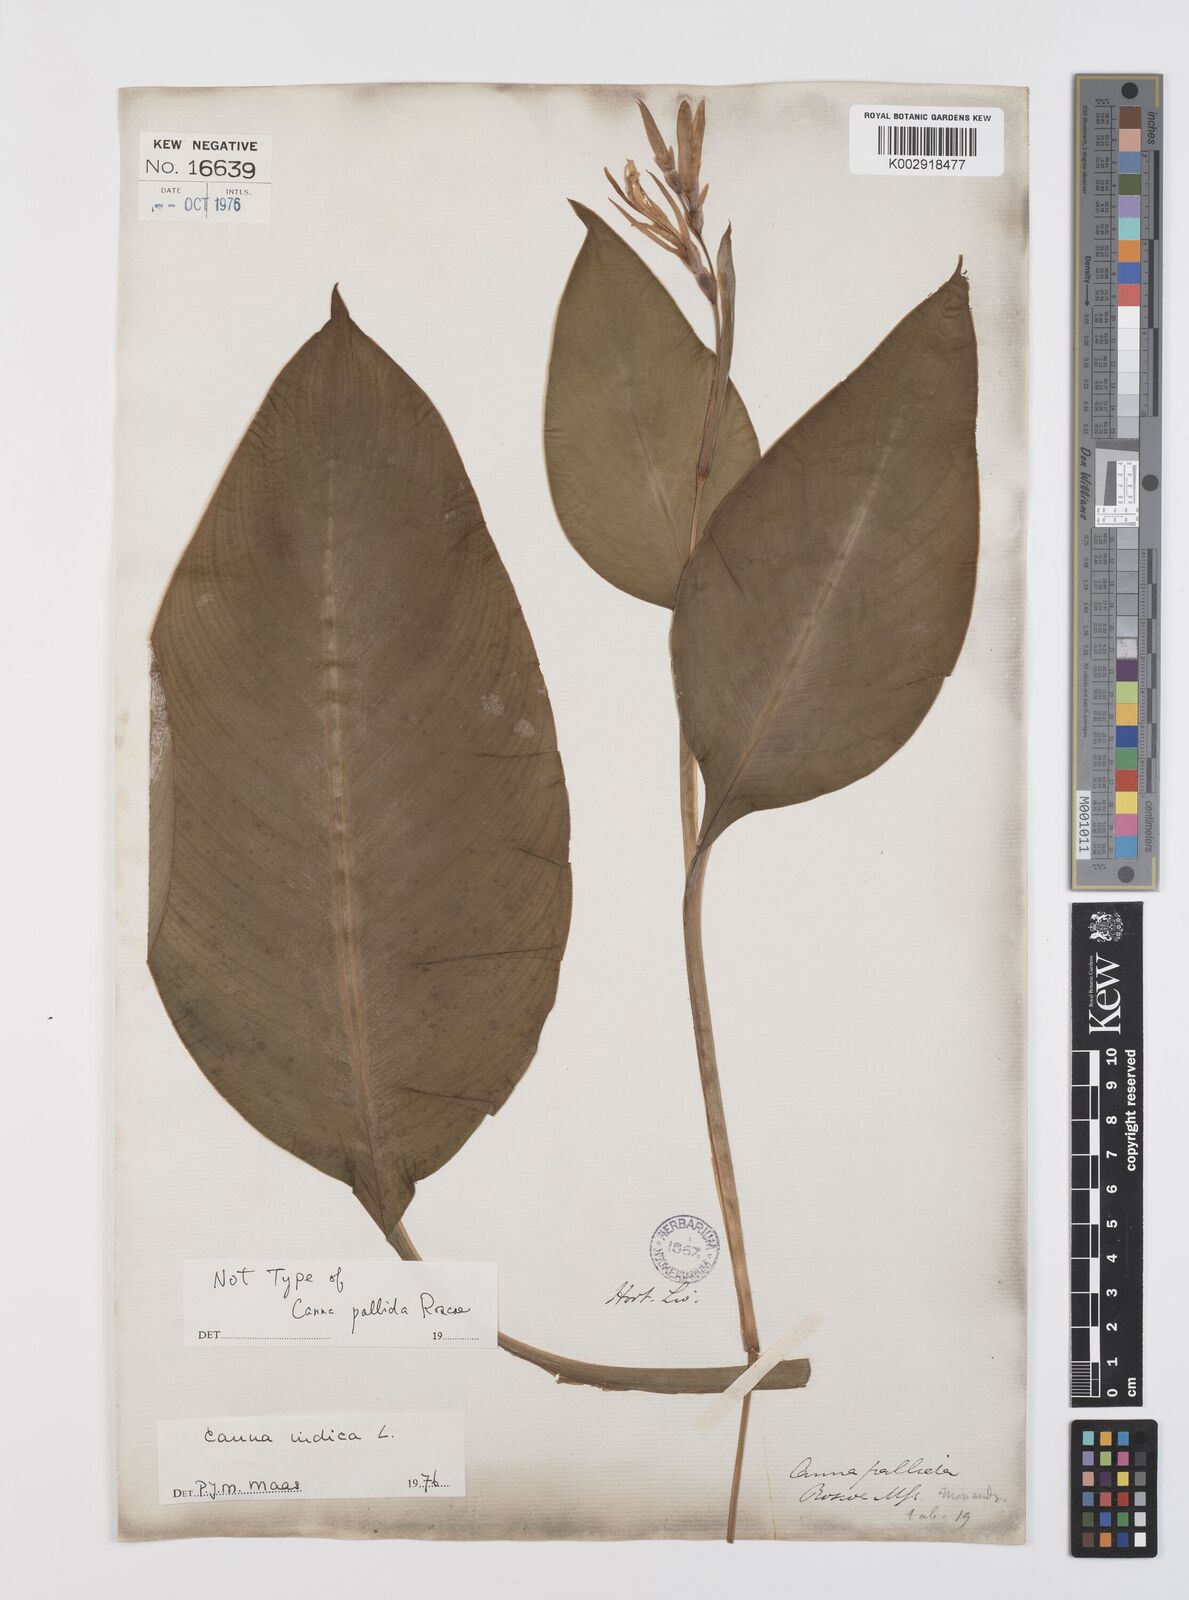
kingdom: Plantae
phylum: Tracheophyta
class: Liliopsida
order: Zingiberales
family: Cannaceae
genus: Canna
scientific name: Canna indica
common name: Indian shot
